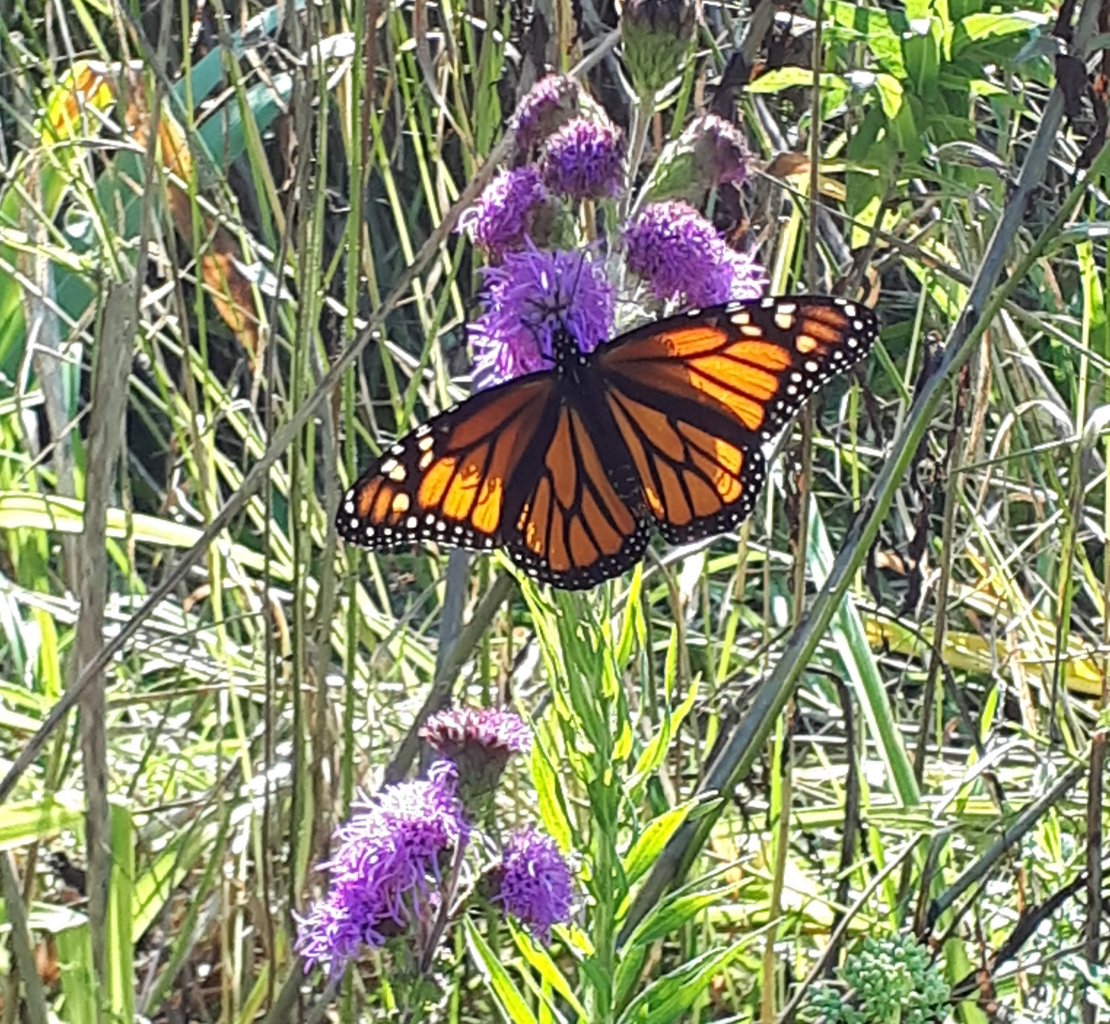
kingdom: Animalia
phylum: Arthropoda
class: Insecta
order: Lepidoptera
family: Nymphalidae
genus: Danaus
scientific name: Danaus plexippus
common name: Monarch
